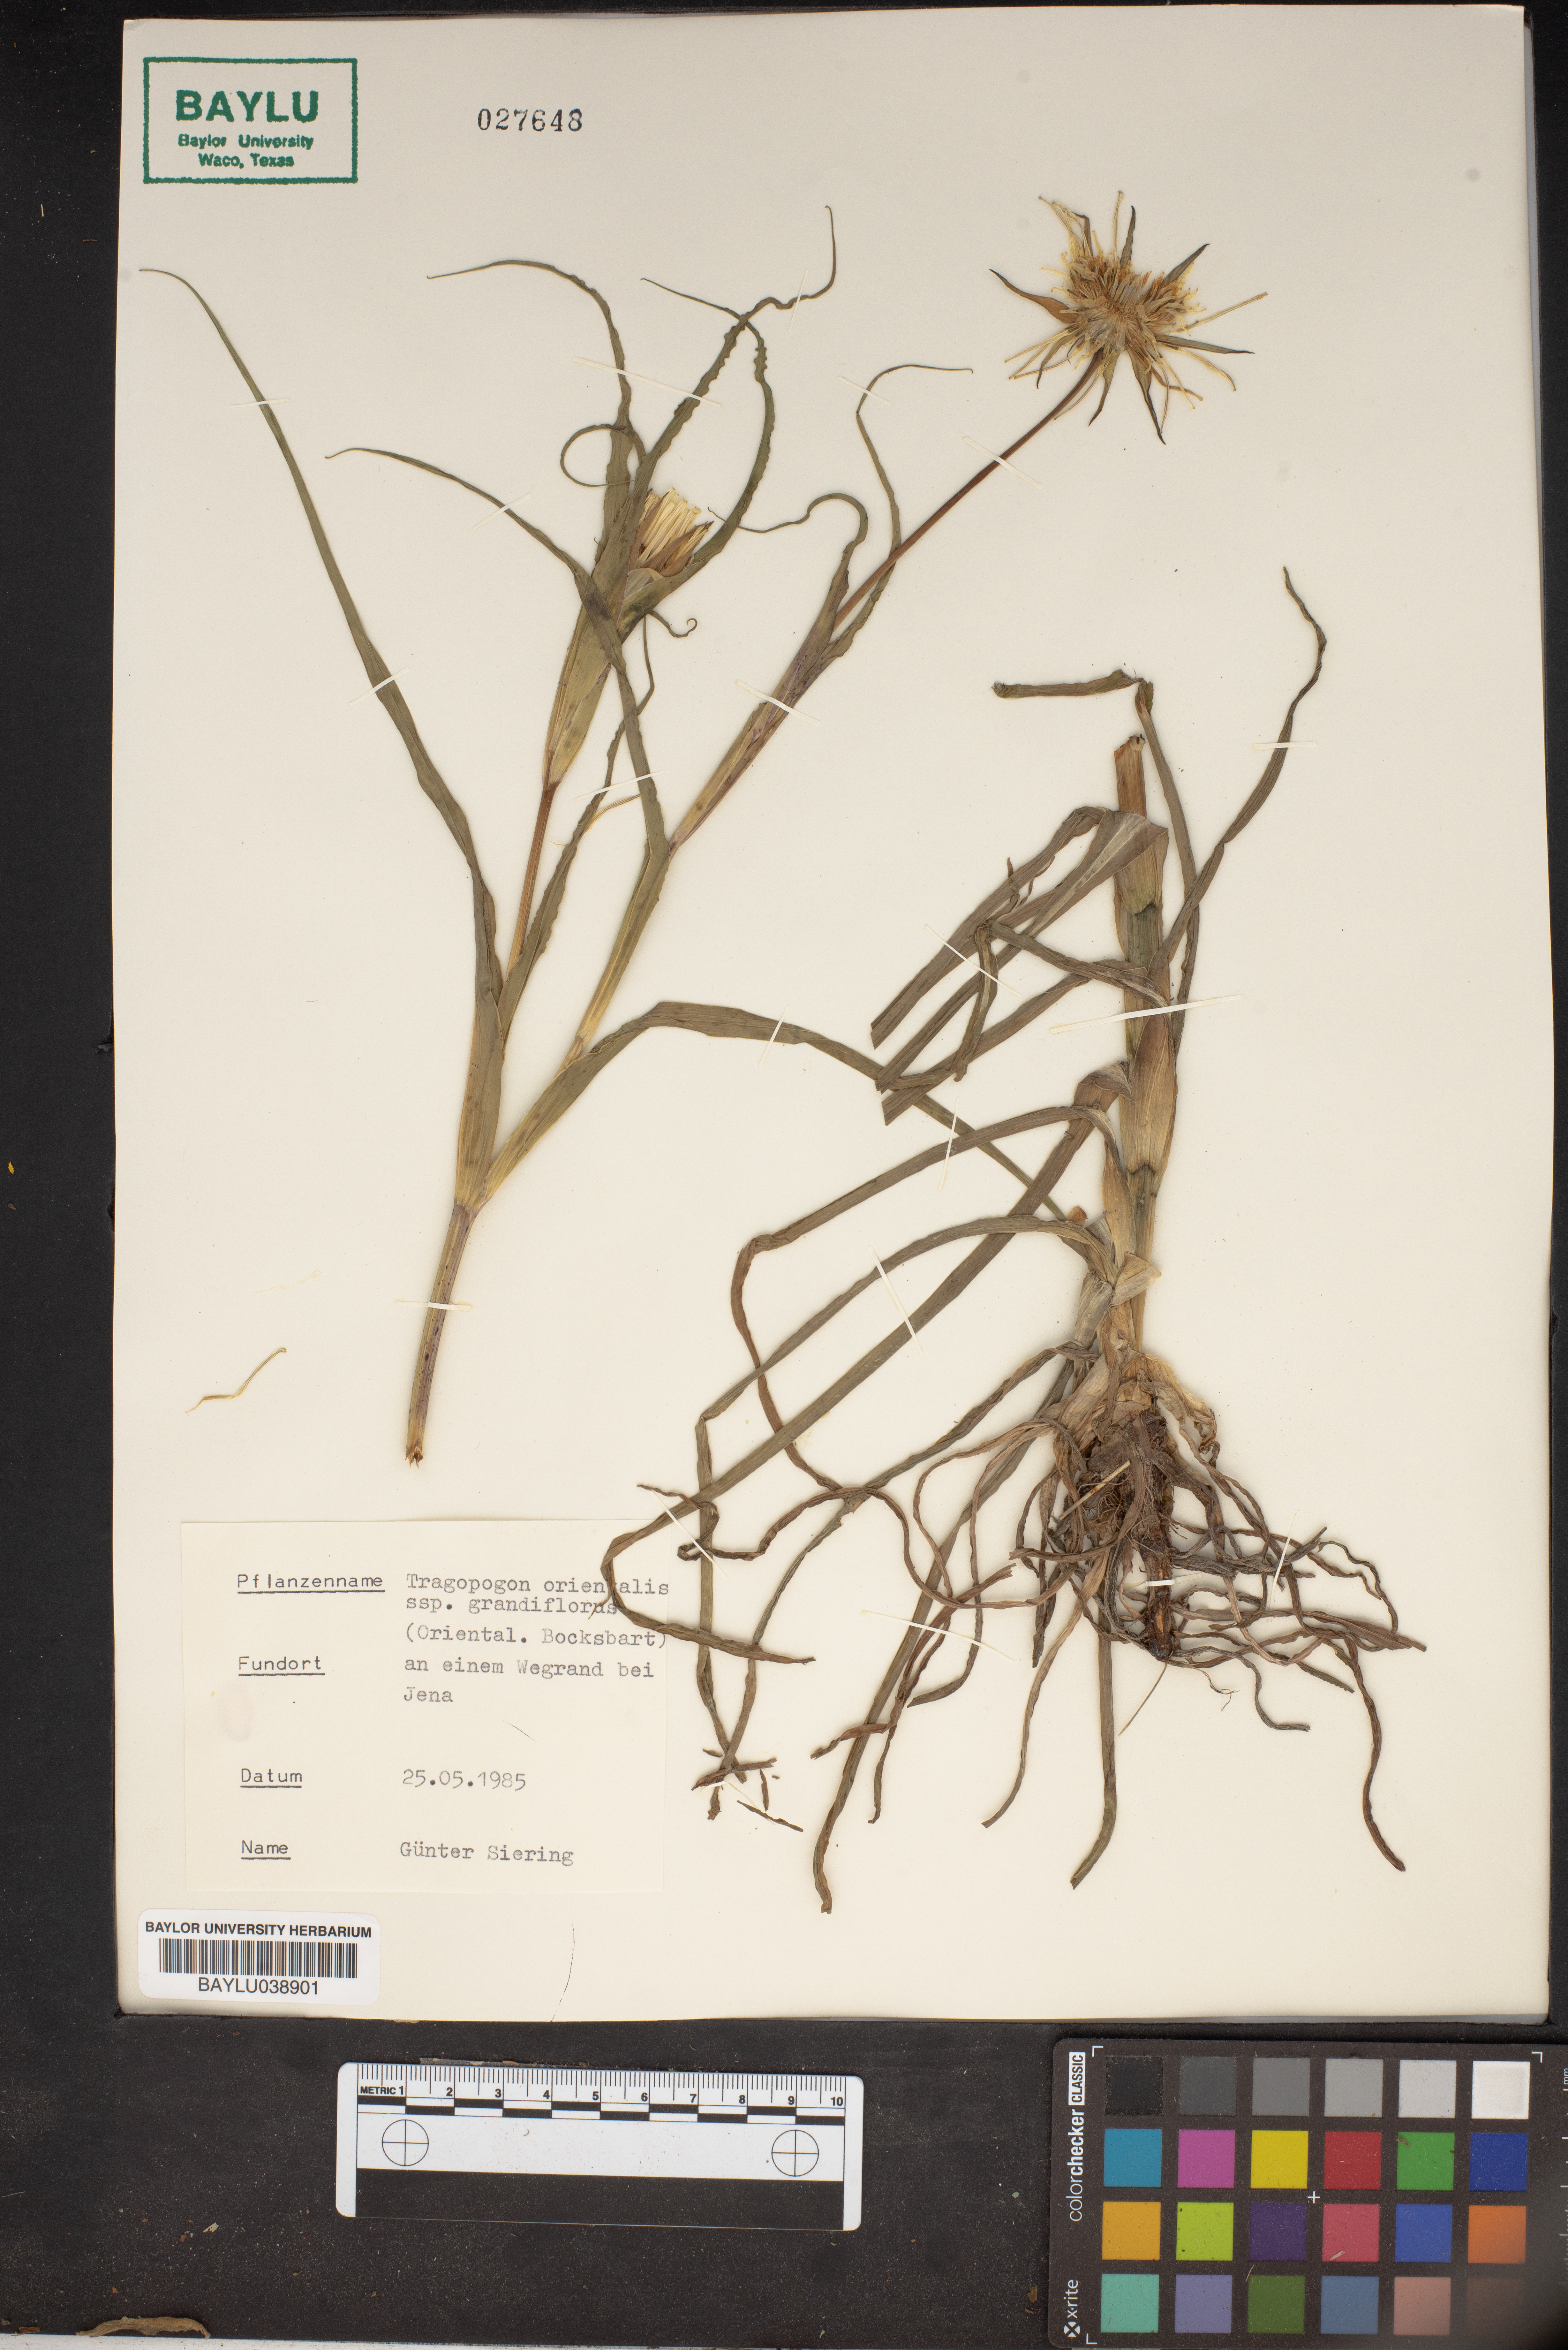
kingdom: Plantae
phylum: Tracheophyta
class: Magnoliopsida
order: Asterales
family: Asteraceae
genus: Tragopogon
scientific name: Tragopogon orientalis
